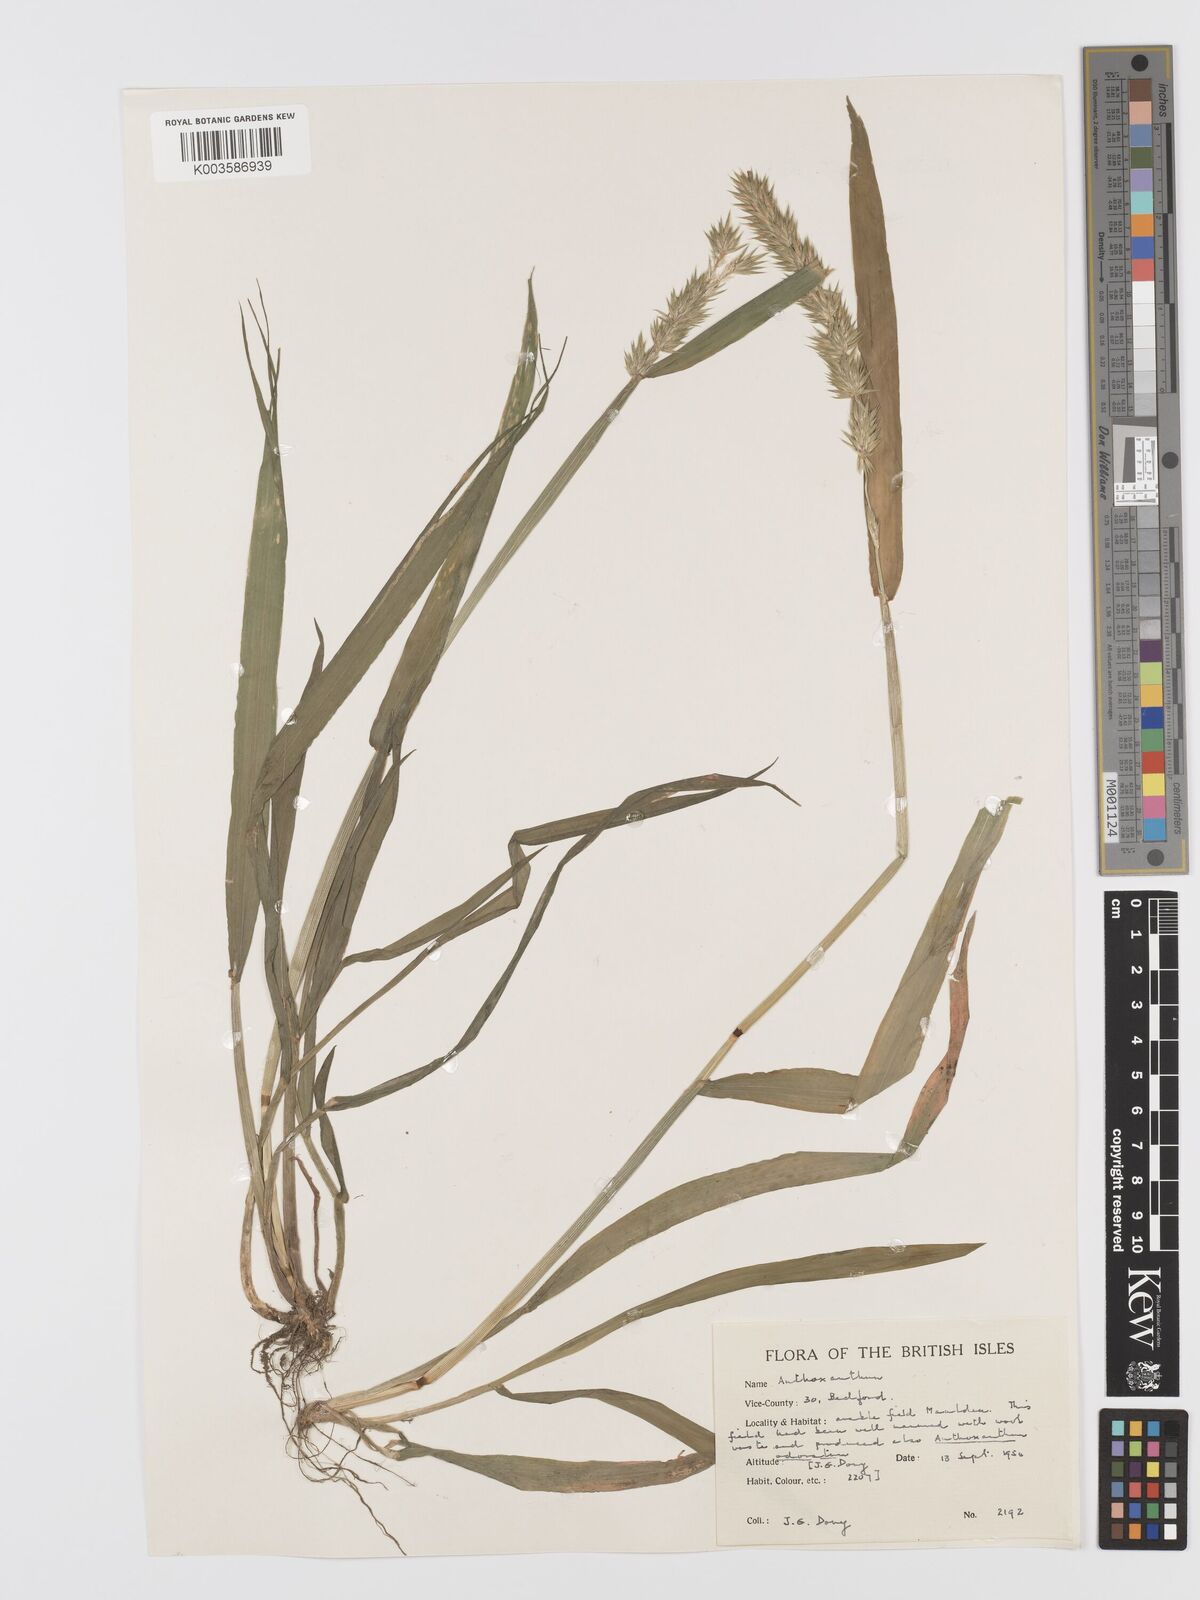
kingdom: Plantae
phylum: Tracheophyta
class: Liliopsida
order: Poales
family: Poaceae
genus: Anthoxanthum
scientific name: Anthoxanthum
